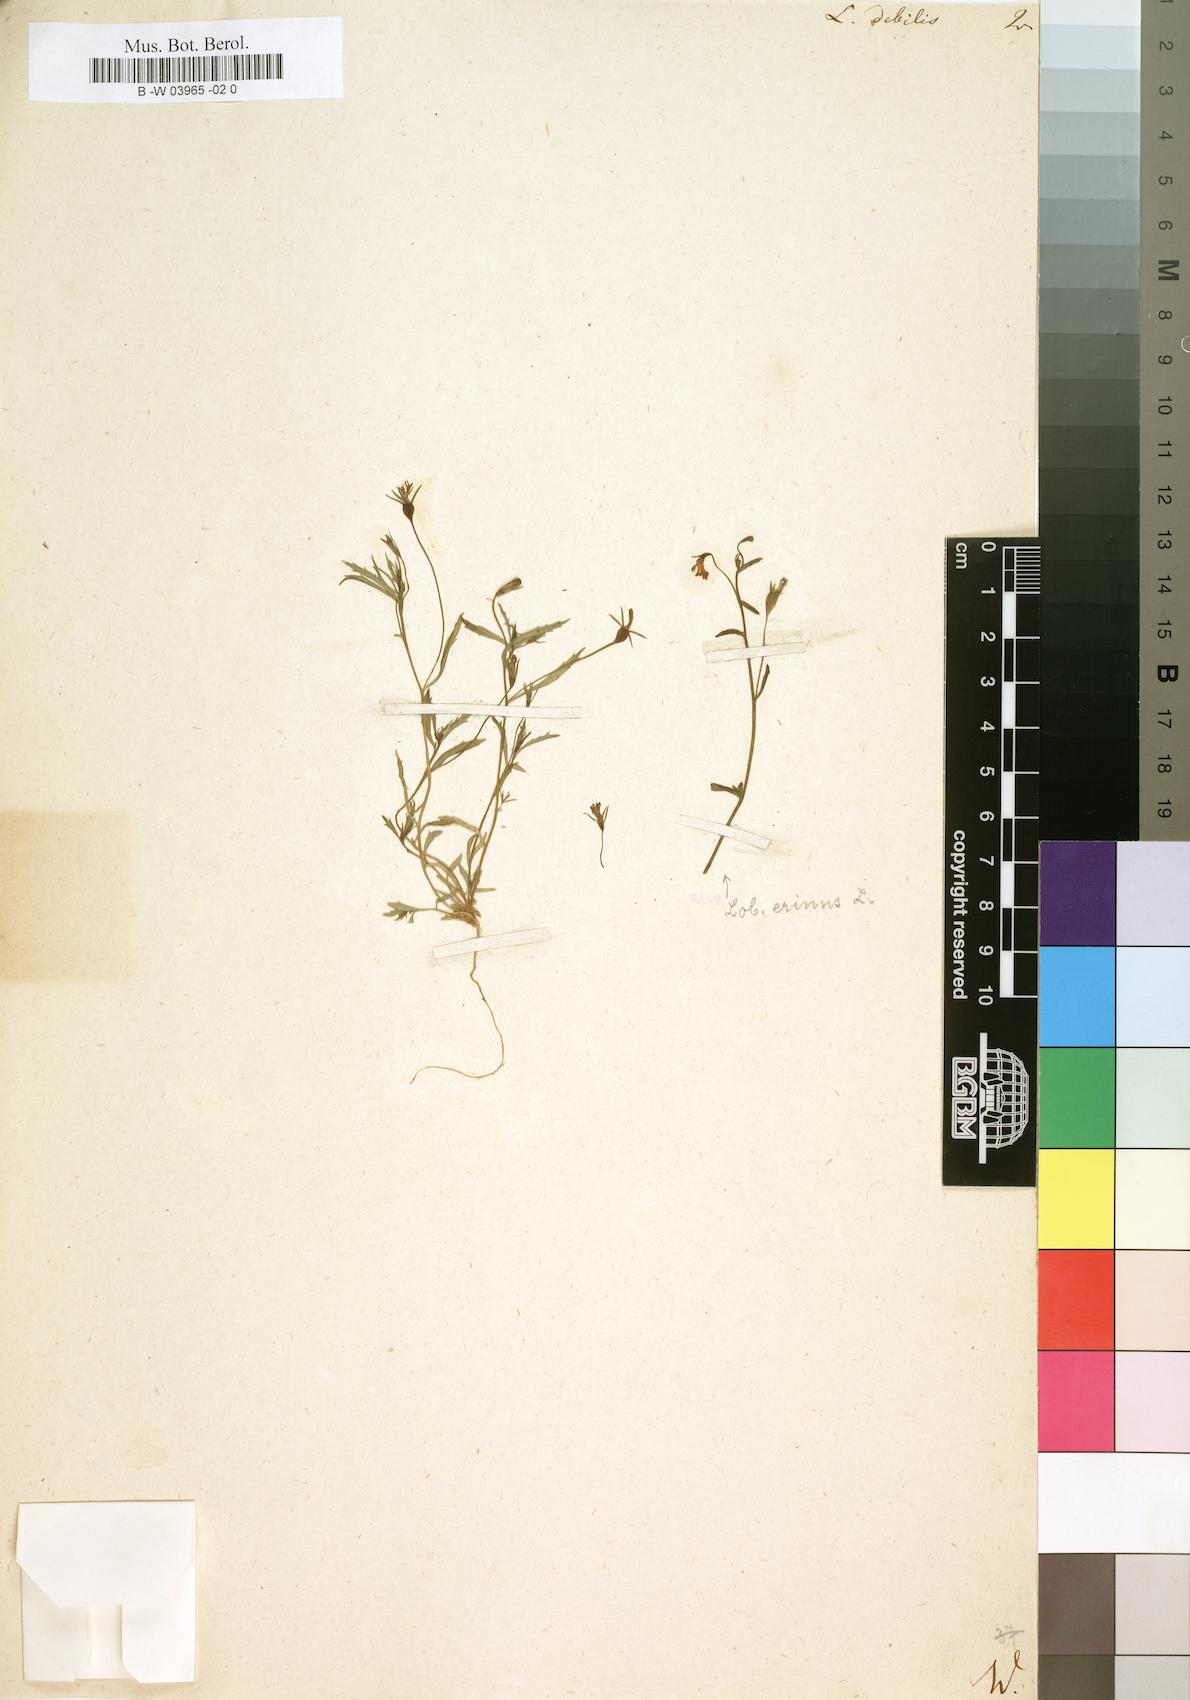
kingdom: Plantae
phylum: Tracheophyta
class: Magnoliopsida
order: Asterales
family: Campanulaceae
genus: Lobelia
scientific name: Lobelia debilis
